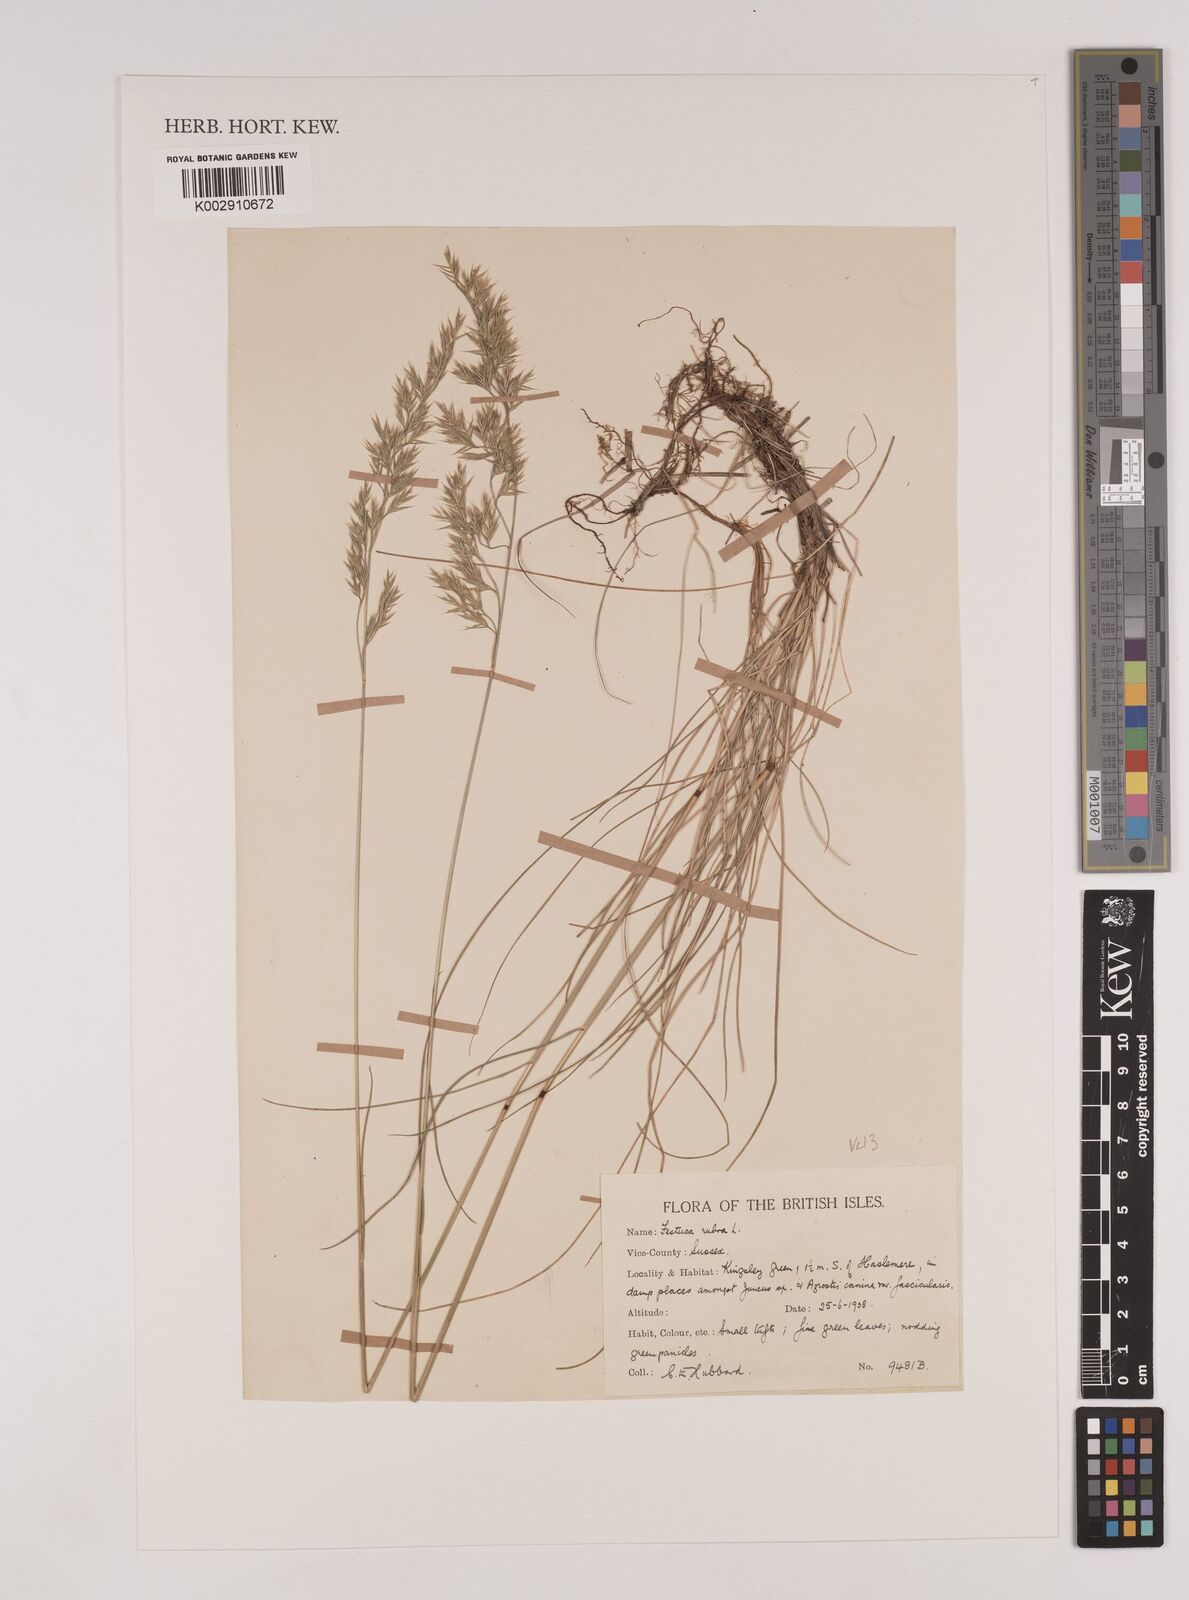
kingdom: Plantae
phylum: Tracheophyta
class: Liliopsida
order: Poales
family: Poaceae
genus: Festuca
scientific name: Festuca rubra
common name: Red fescue
